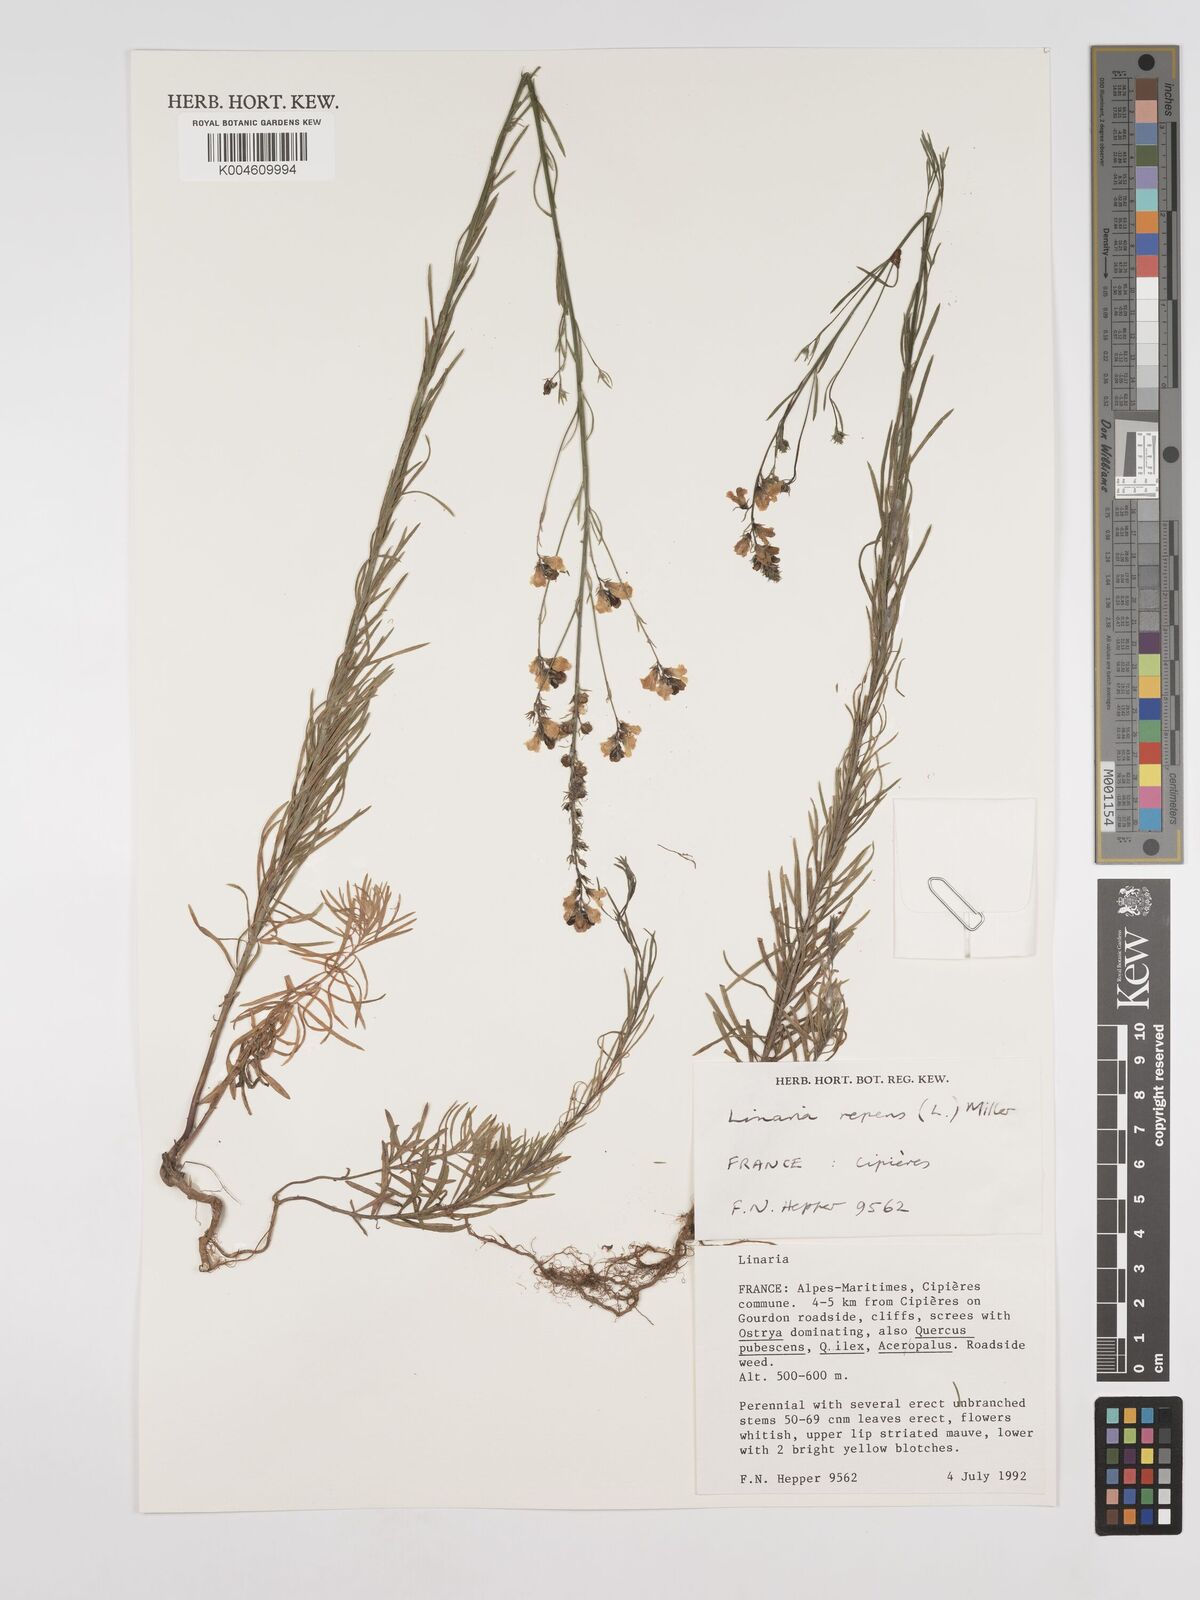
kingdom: Plantae
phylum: Tracheophyta
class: Magnoliopsida
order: Lamiales
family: Plantaginaceae
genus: Linaria
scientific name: Linaria repens
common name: Pale toadflax
